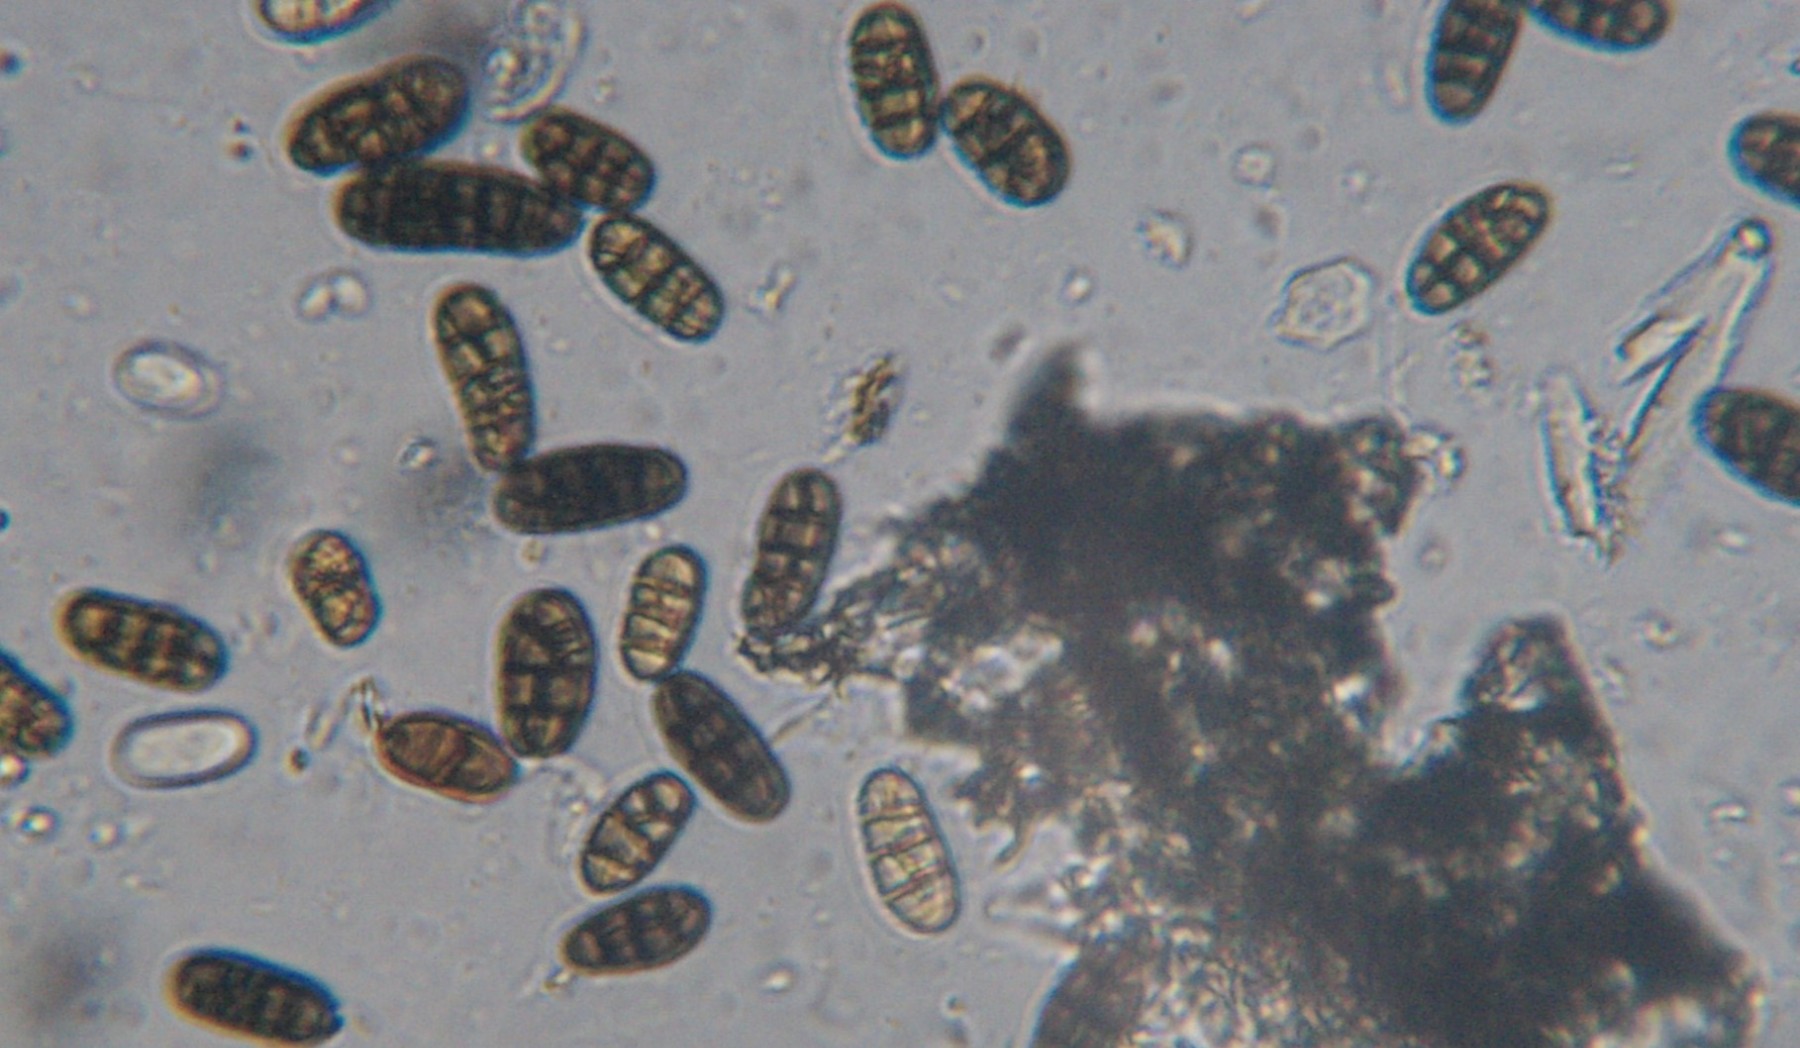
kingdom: Fungi
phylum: Ascomycota
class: Dothideomycetes
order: Pleosporales
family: Camarosporidiellaceae
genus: Camarosporidiella
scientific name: Camarosporidiella laburni
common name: guldregn-tykbær
